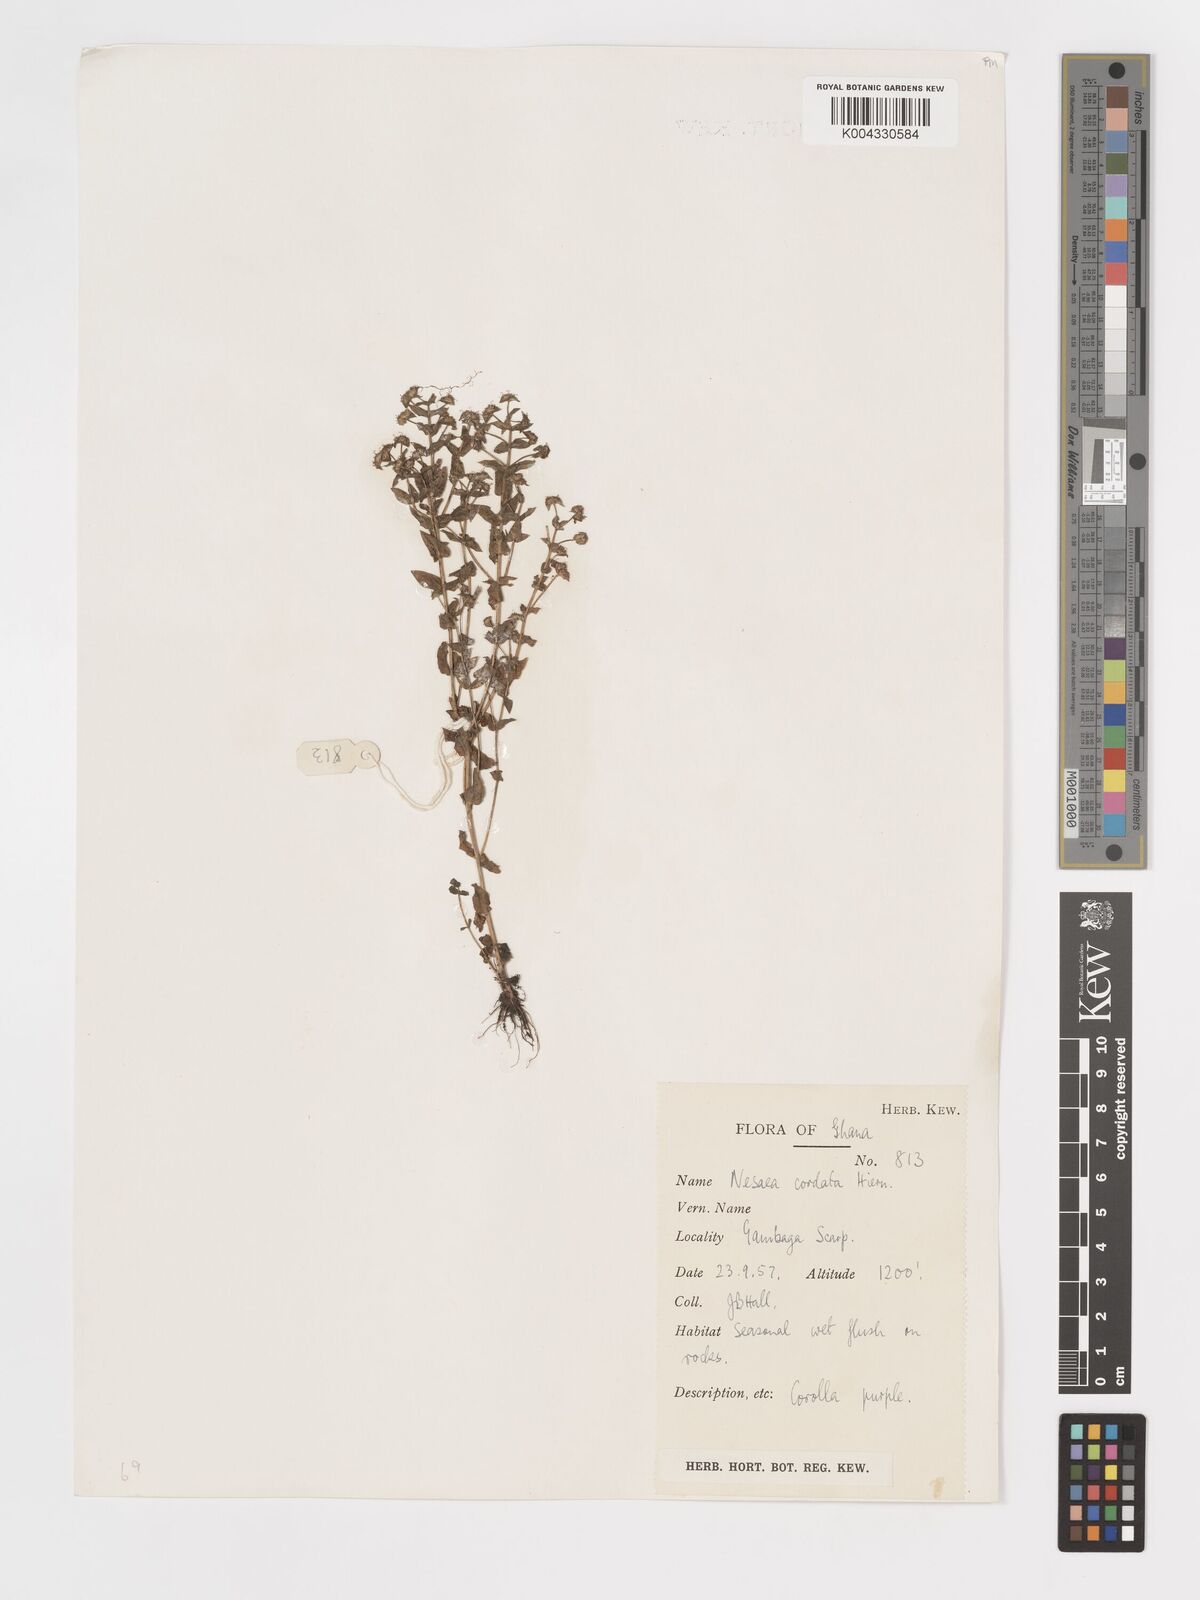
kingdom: Plantae
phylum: Tracheophyta
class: Magnoliopsida
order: Myrtales
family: Lythraceae
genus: Nesaea
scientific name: Nesaea
